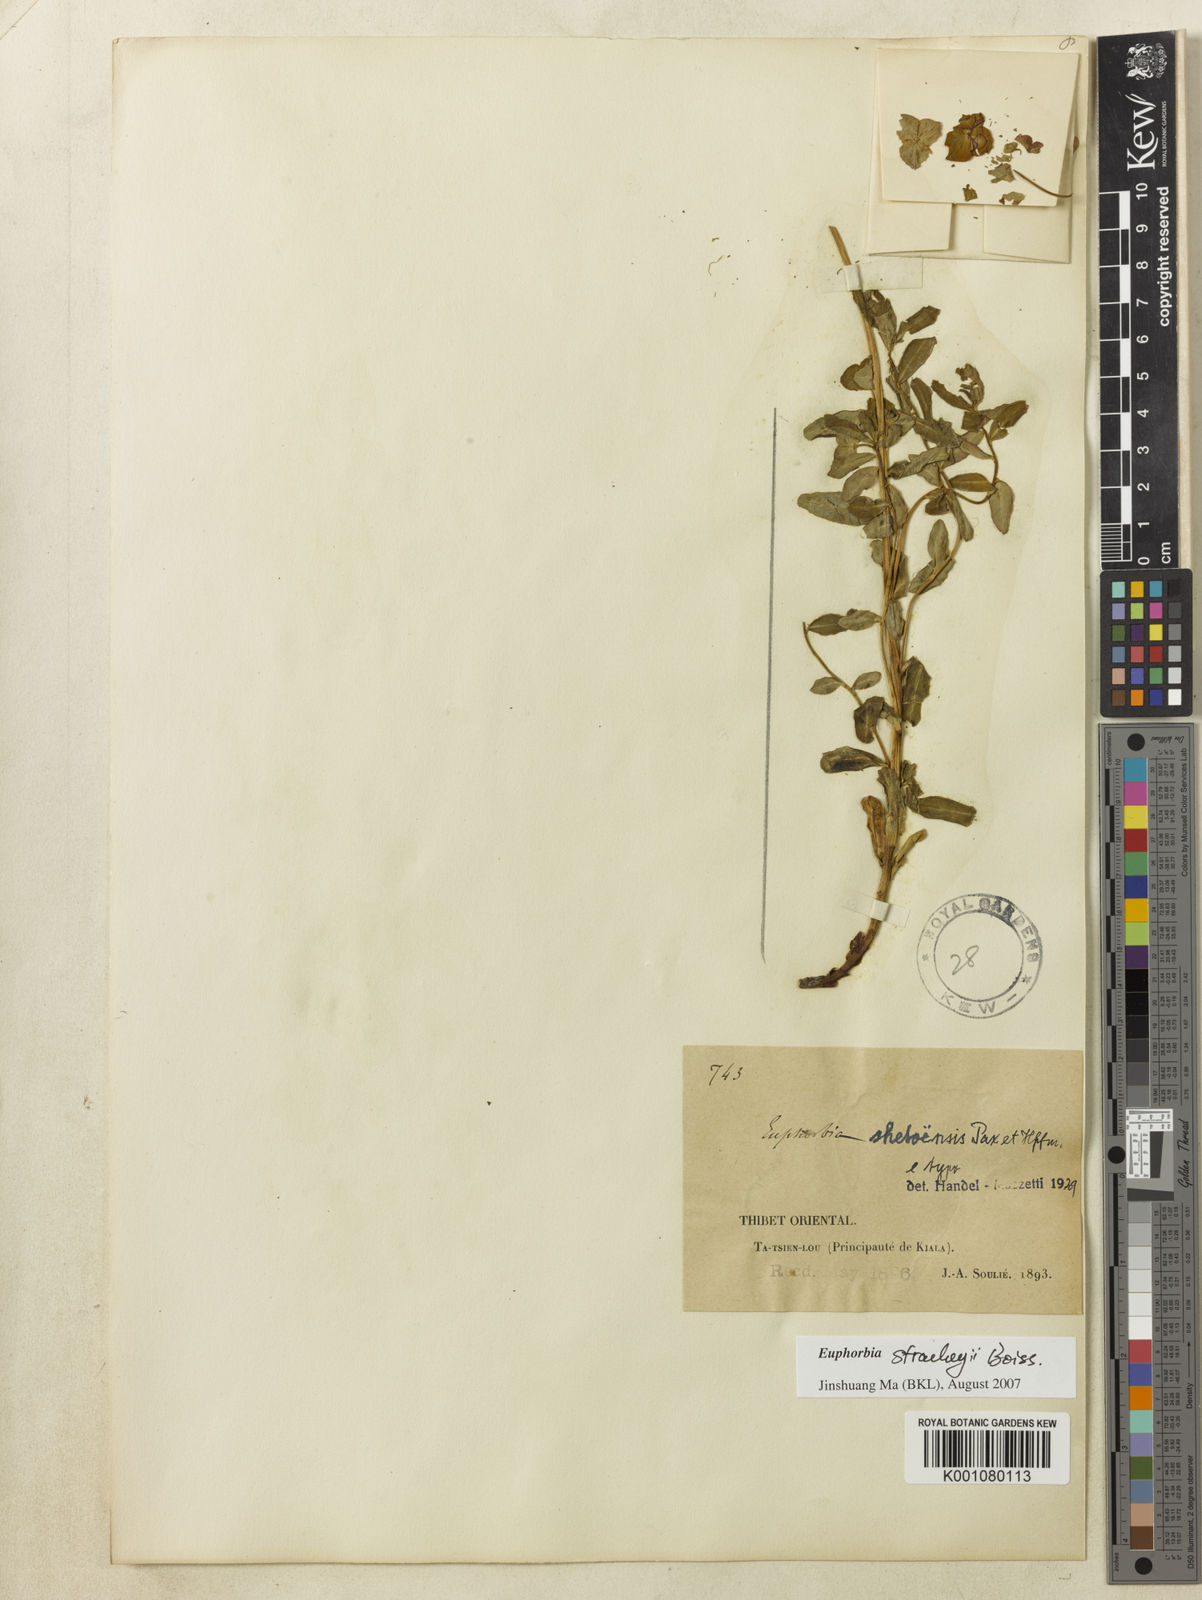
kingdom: Plantae
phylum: Tracheophyta
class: Magnoliopsida
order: Malpighiales
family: Euphorbiaceae
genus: Euphorbia
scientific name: Euphorbia stracheyi
